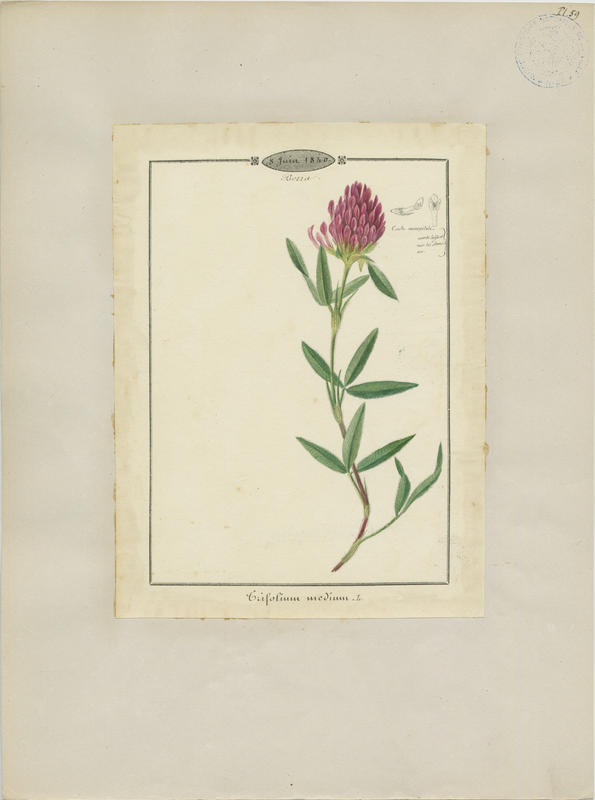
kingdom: Plantae
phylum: Tracheophyta
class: Magnoliopsida
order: Fabales
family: Fabaceae
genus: Trifolium
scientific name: Trifolium medium
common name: Zigzag clover
